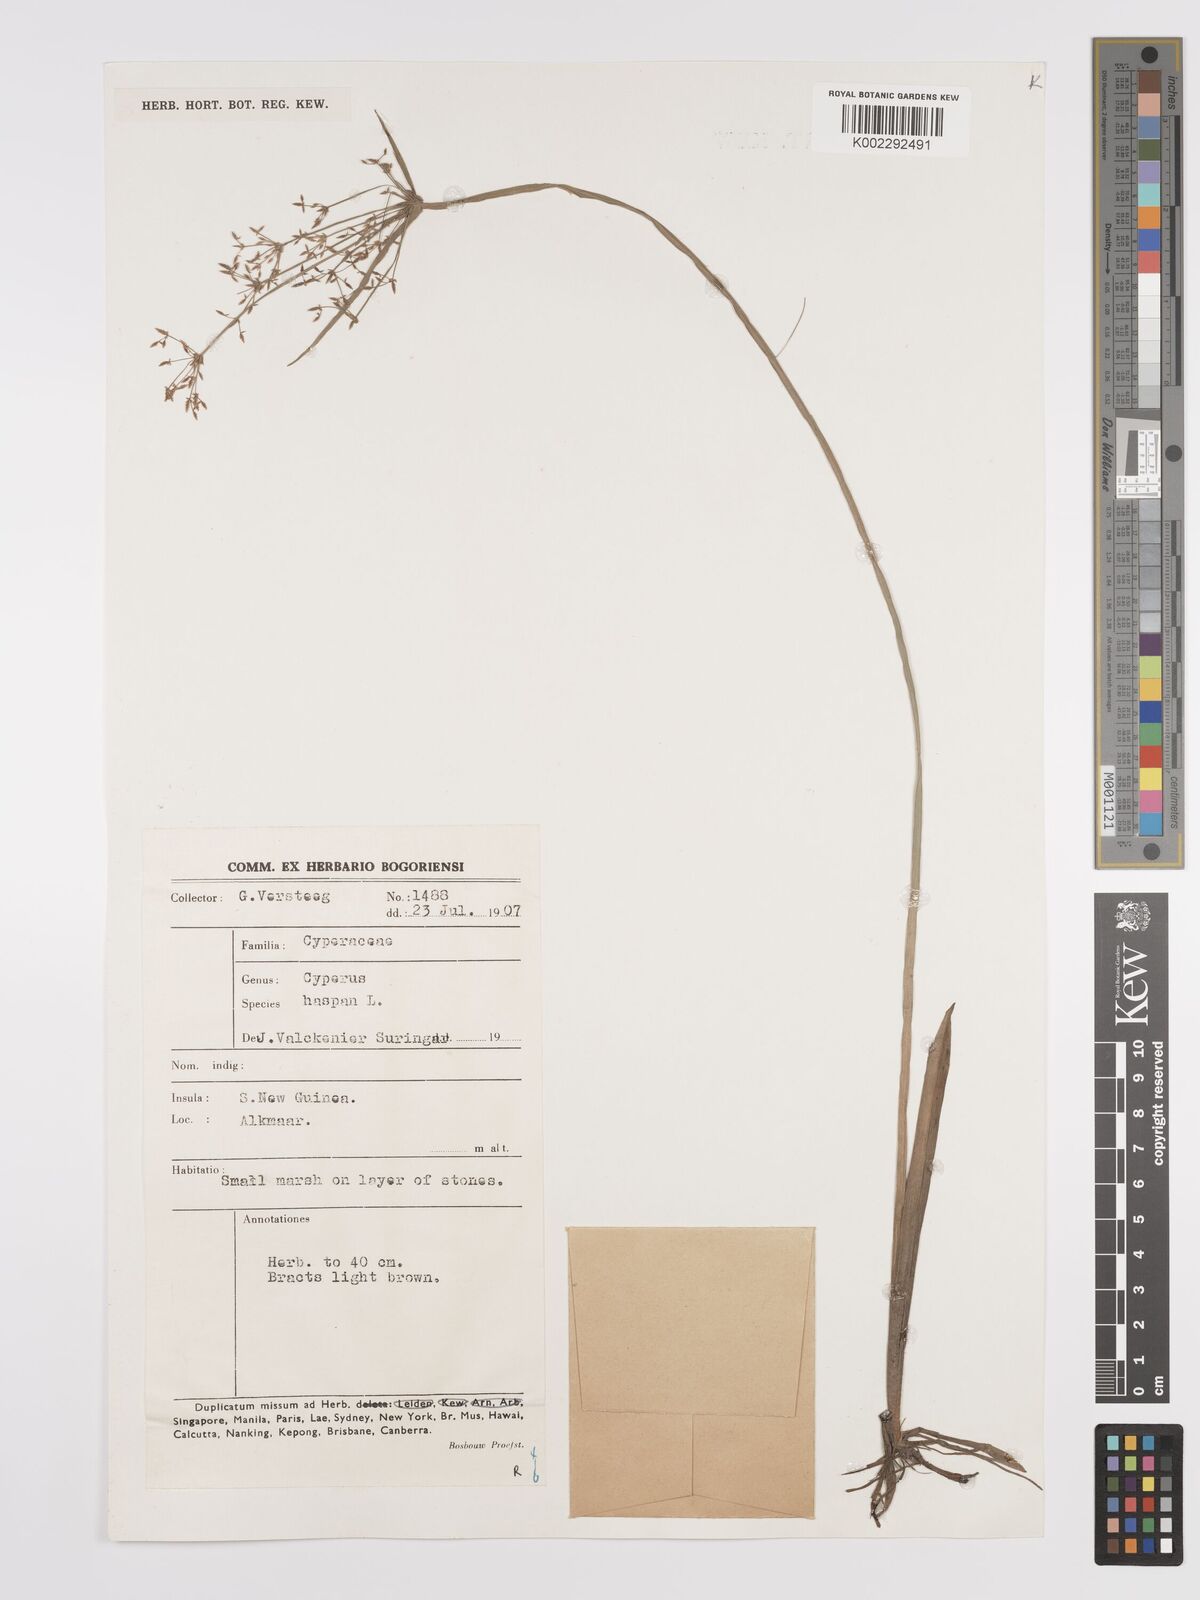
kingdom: Plantae
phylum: Tracheophyta
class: Liliopsida
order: Poales
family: Cyperaceae
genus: Cyperus
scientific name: Cyperus haspan
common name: Haspan flatsedge
